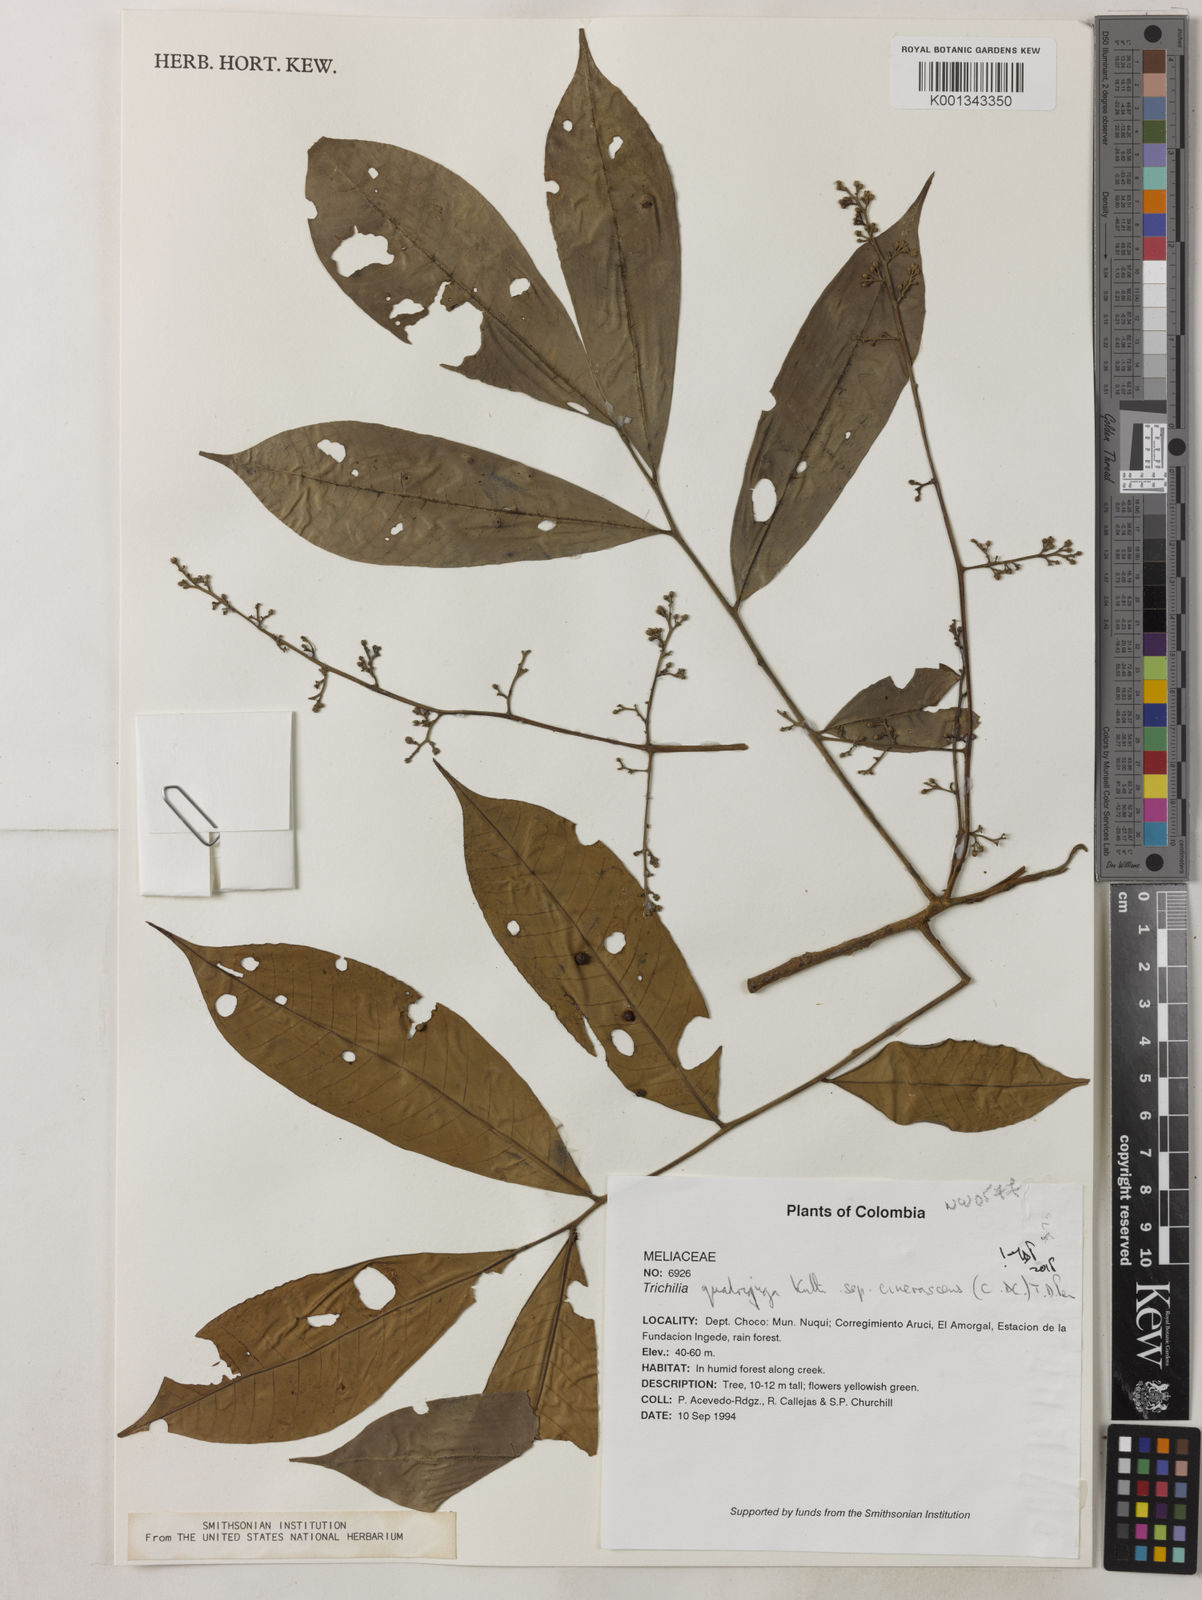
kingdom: Plantae
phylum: Tracheophyta
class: Magnoliopsida
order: Sapindales
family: Meliaceae
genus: Trichilia
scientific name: Trichilia
